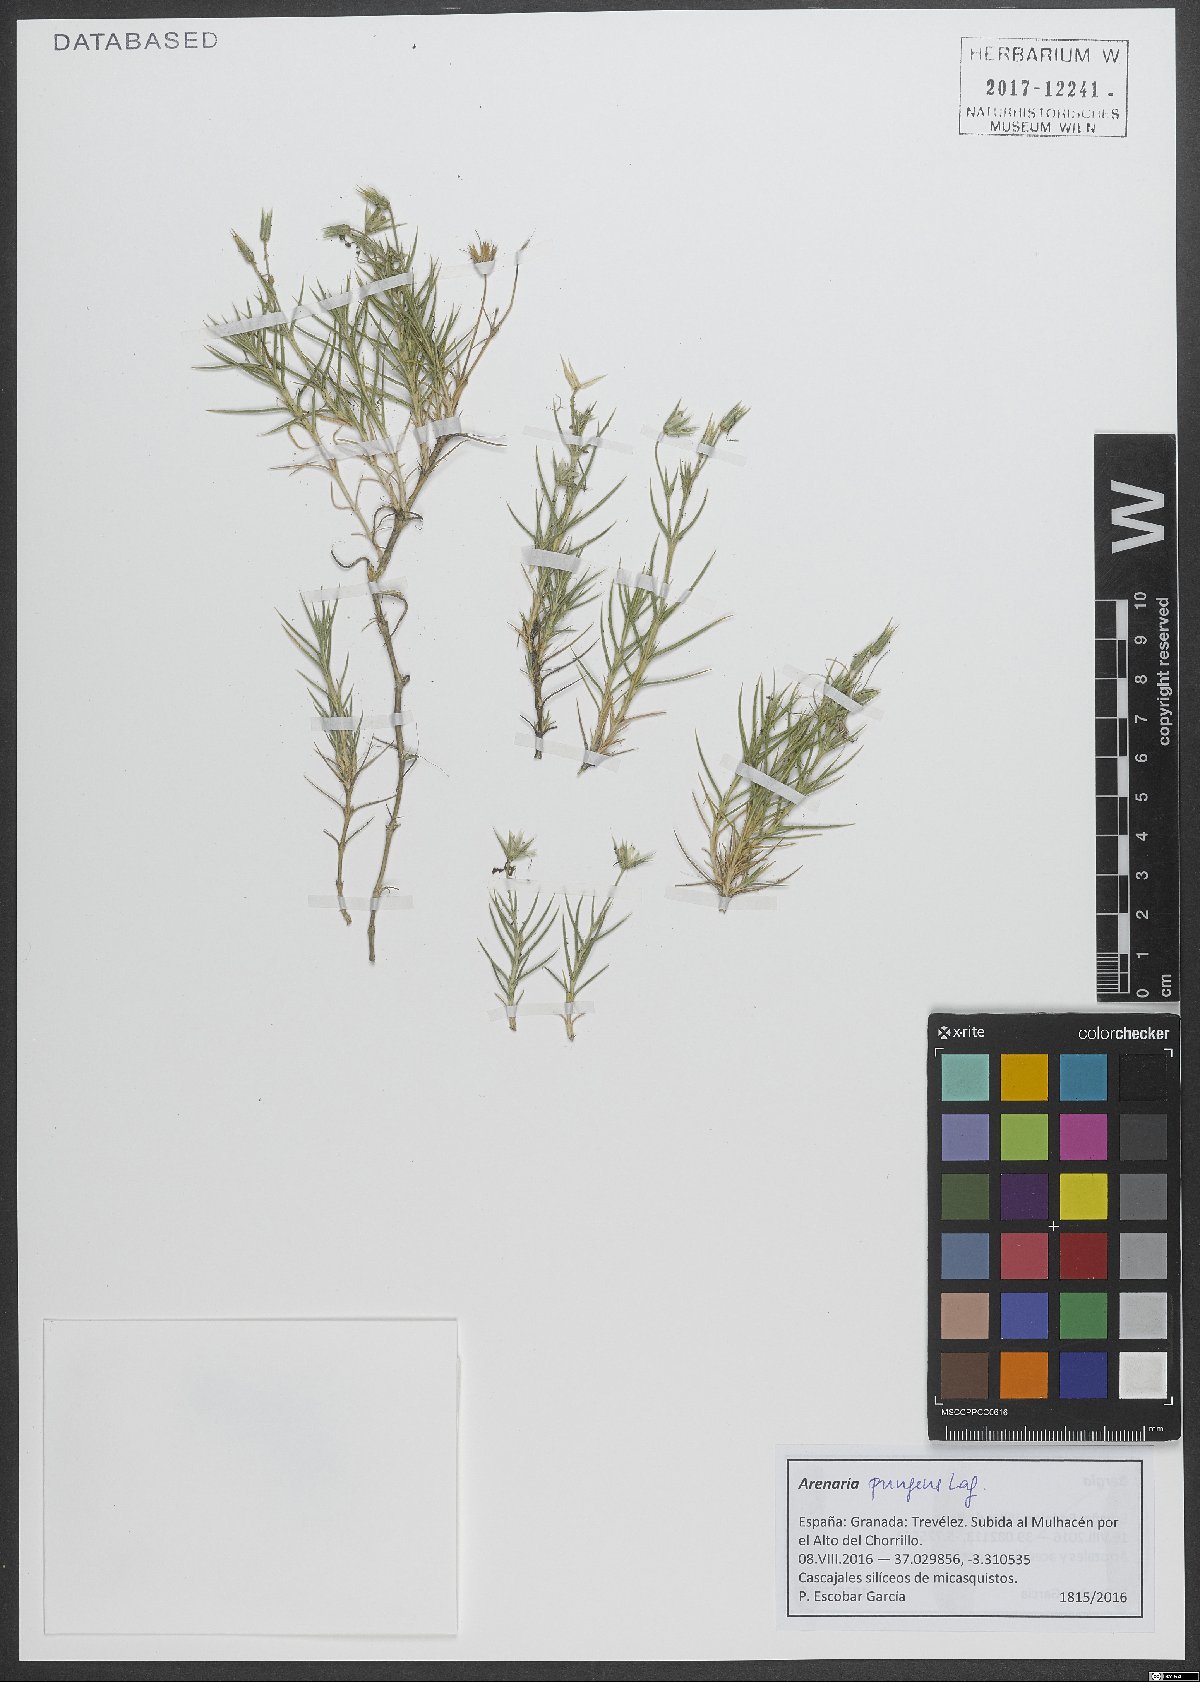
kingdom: Plantae
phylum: Tracheophyta
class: Magnoliopsida
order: Caryophyllales
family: Caryophyllaceae
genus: Arenaria
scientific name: Arenaria pungens
